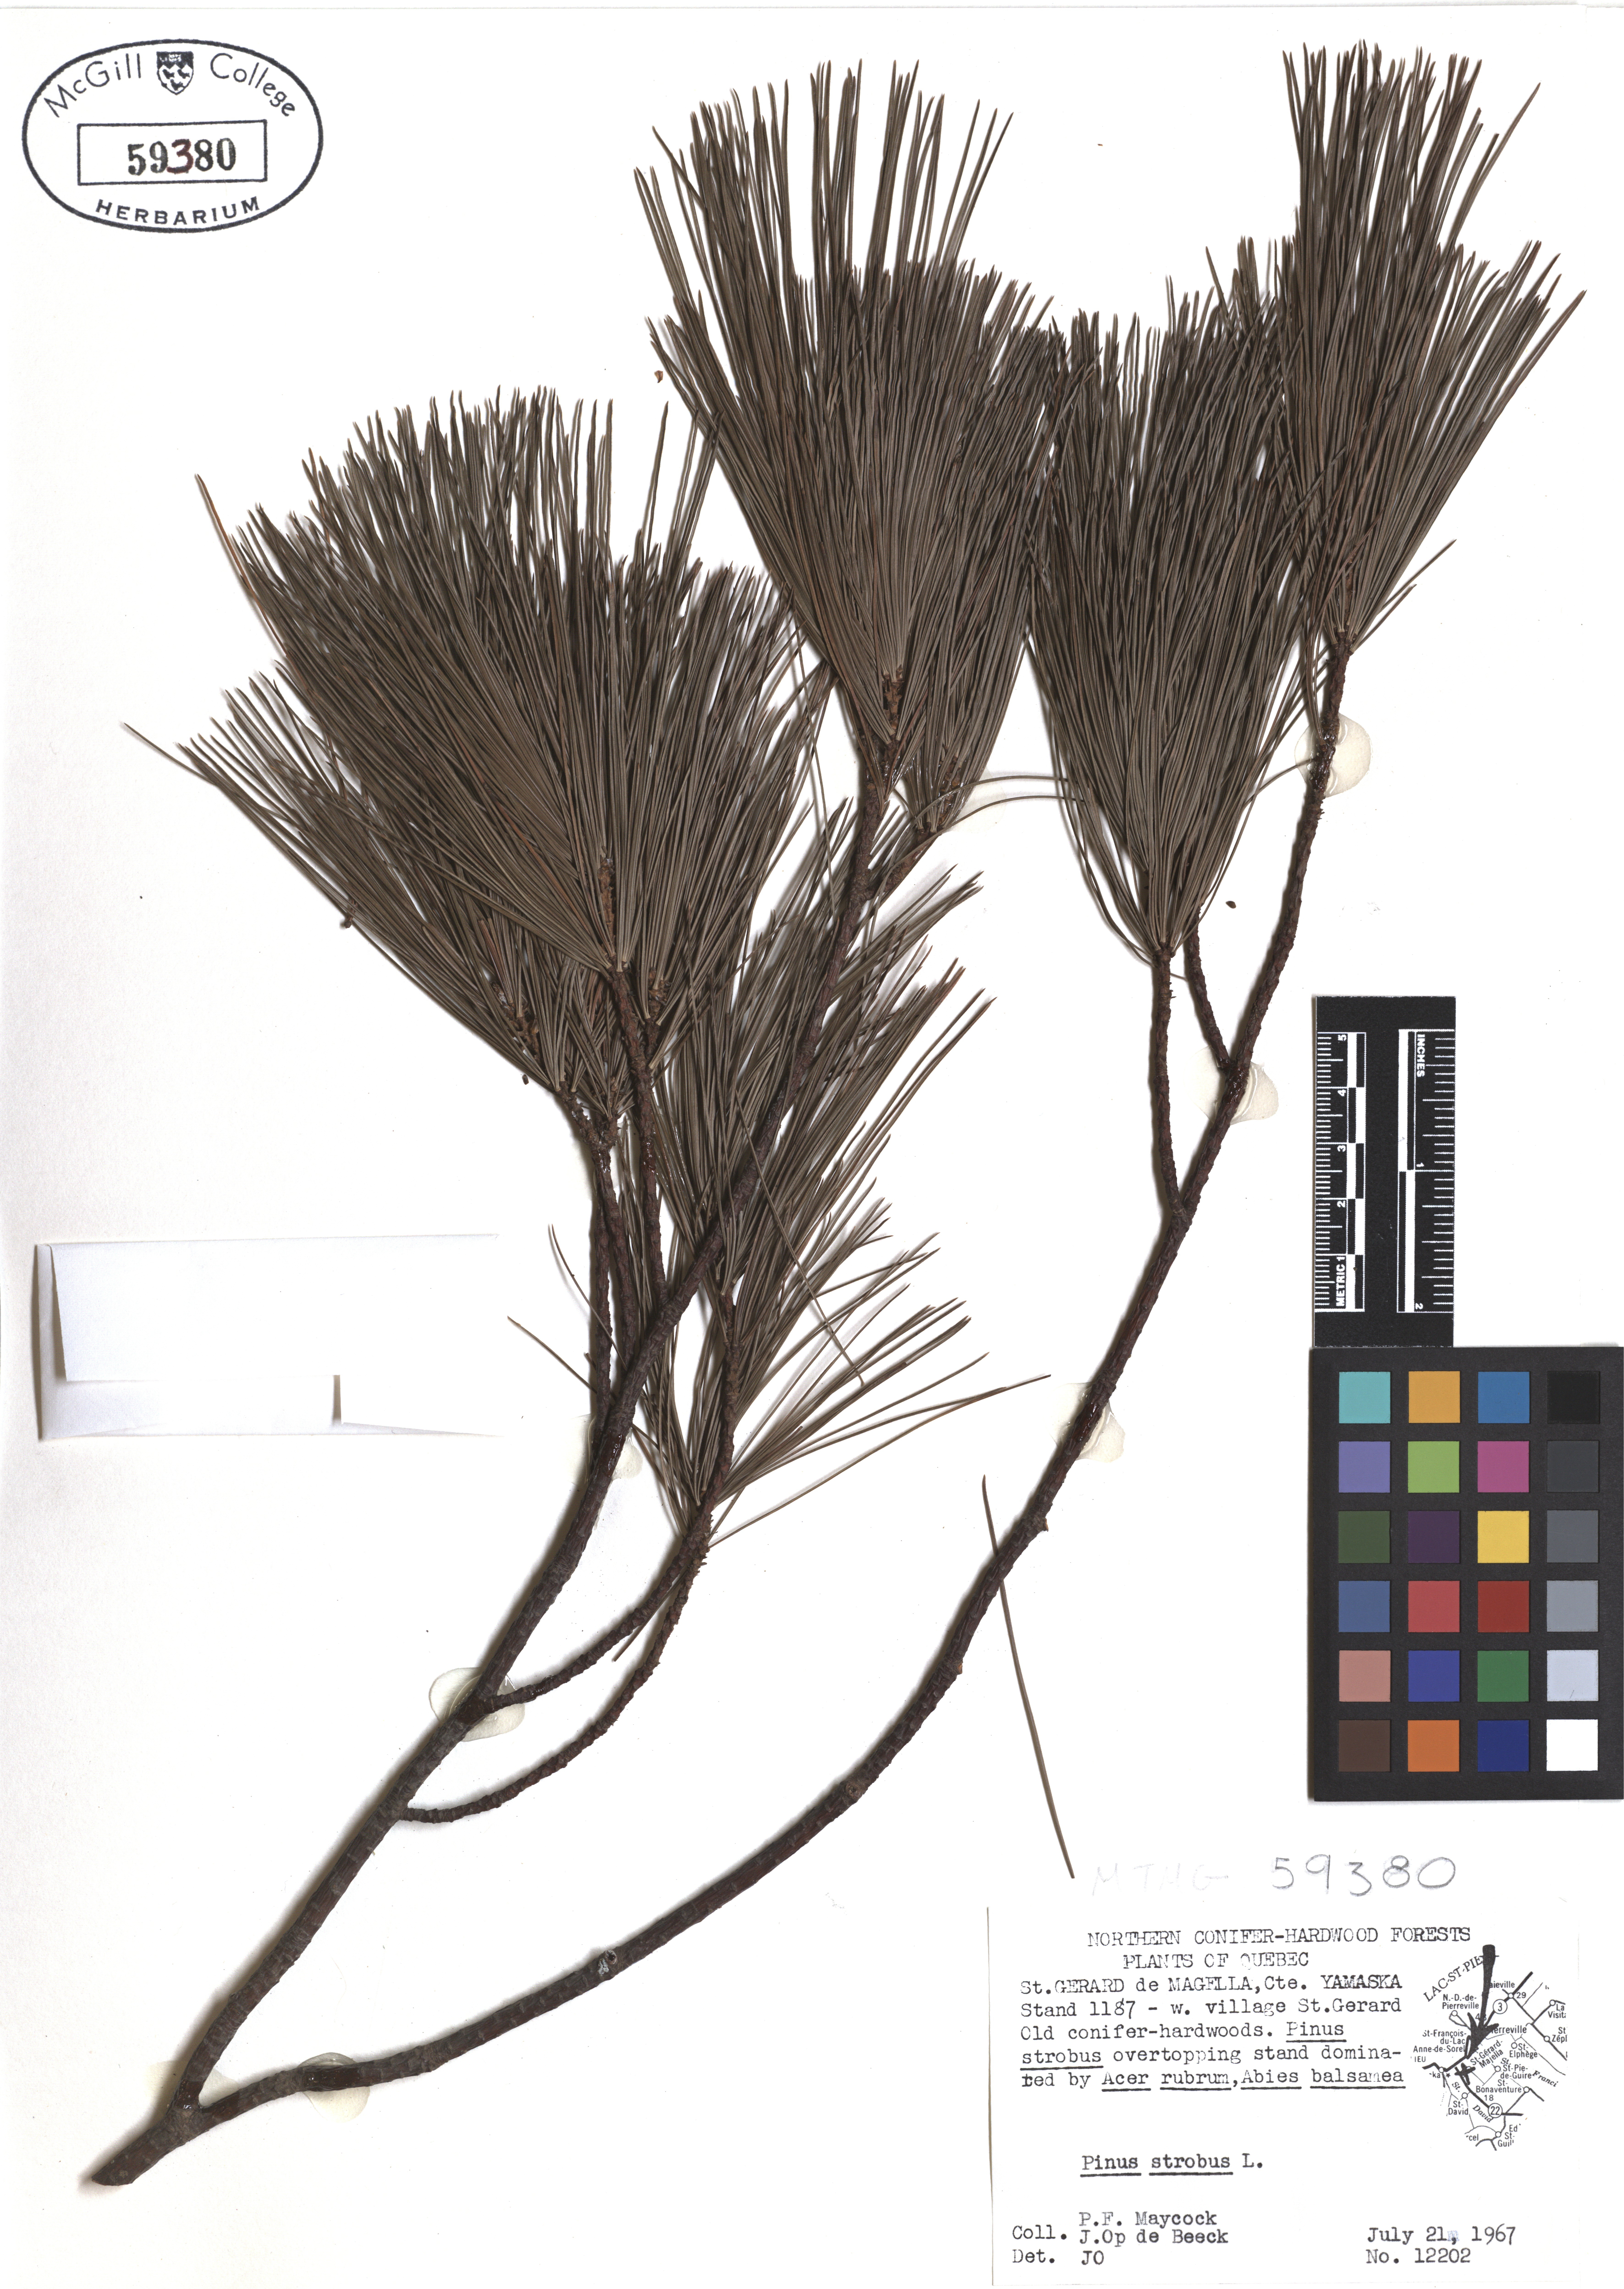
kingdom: Plantae
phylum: Tracheophyta
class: Pinopsida
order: Pinales
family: Pinaceae
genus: Pinus
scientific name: Pinus strobus
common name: Weymouth pine
